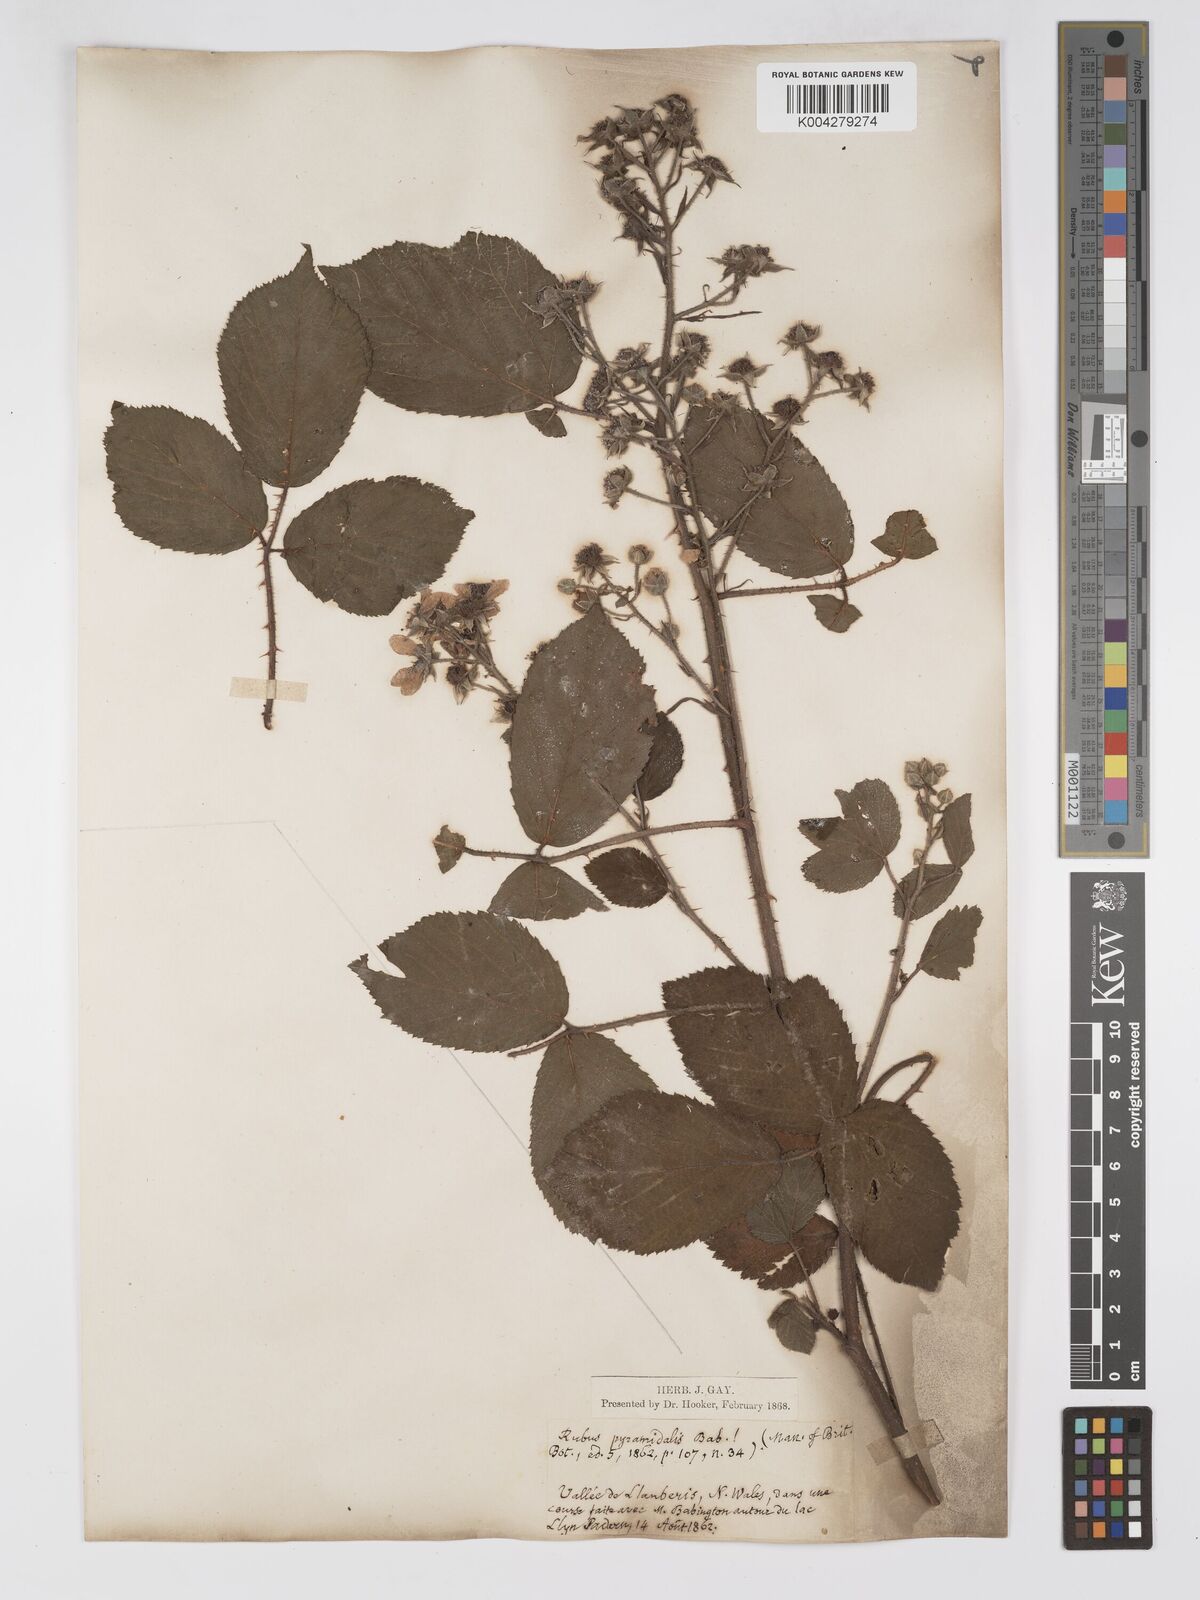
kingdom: Plantae
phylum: Tracheophyta
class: Magnoliopsida
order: Rosales
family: Rosaceae
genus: Rubus
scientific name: Rubus longithyrsiger
